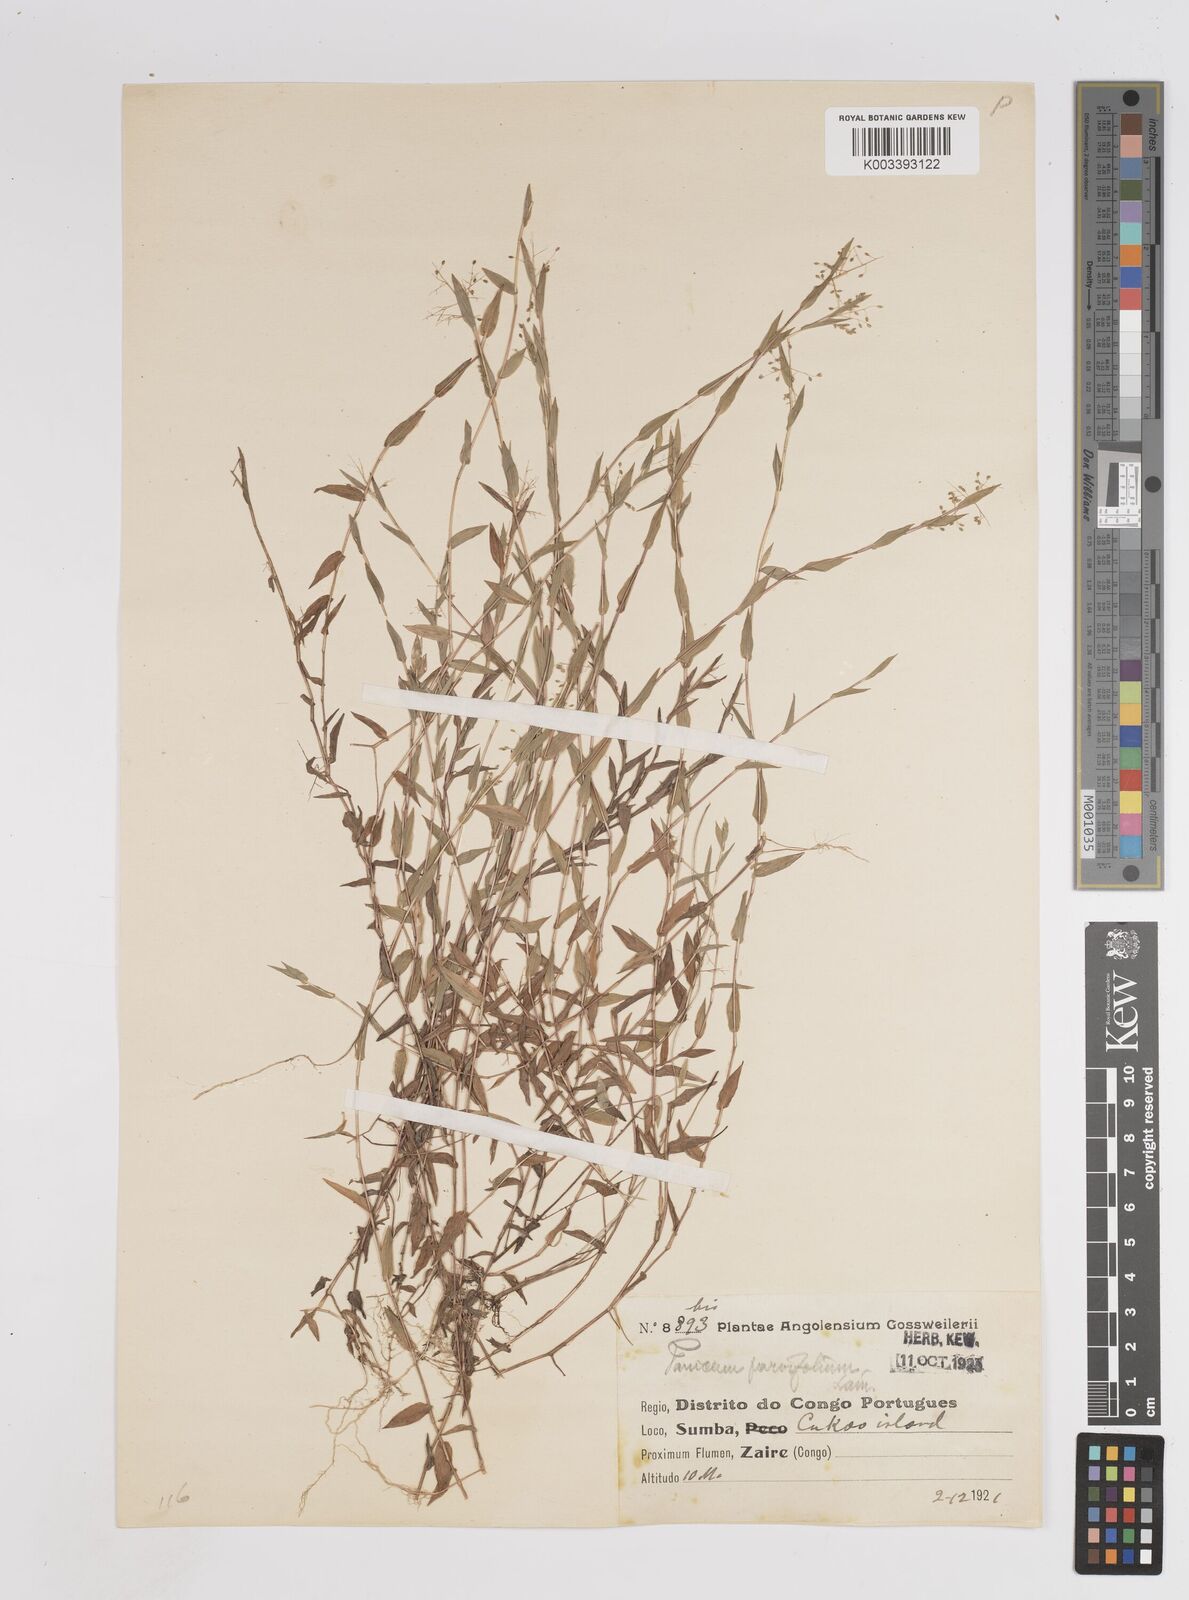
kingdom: Plantae
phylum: Tracheophyta
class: Liliopsida
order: Poales
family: Poaceae
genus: Trichanthecium
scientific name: Trichanthecium parvifolium
